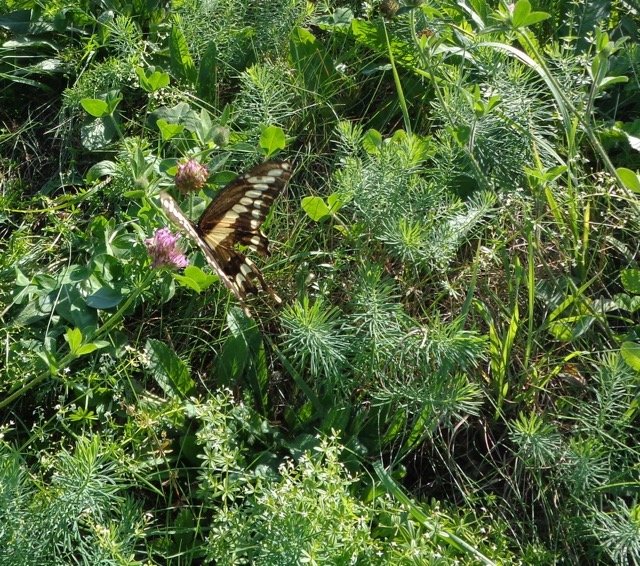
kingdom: Animalia
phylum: Arthropoda
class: Insecta
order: Lepidoptera
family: Papilionidae
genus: Papilio
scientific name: Papilio cresphontes
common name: Eastern Giant Swallowtail
